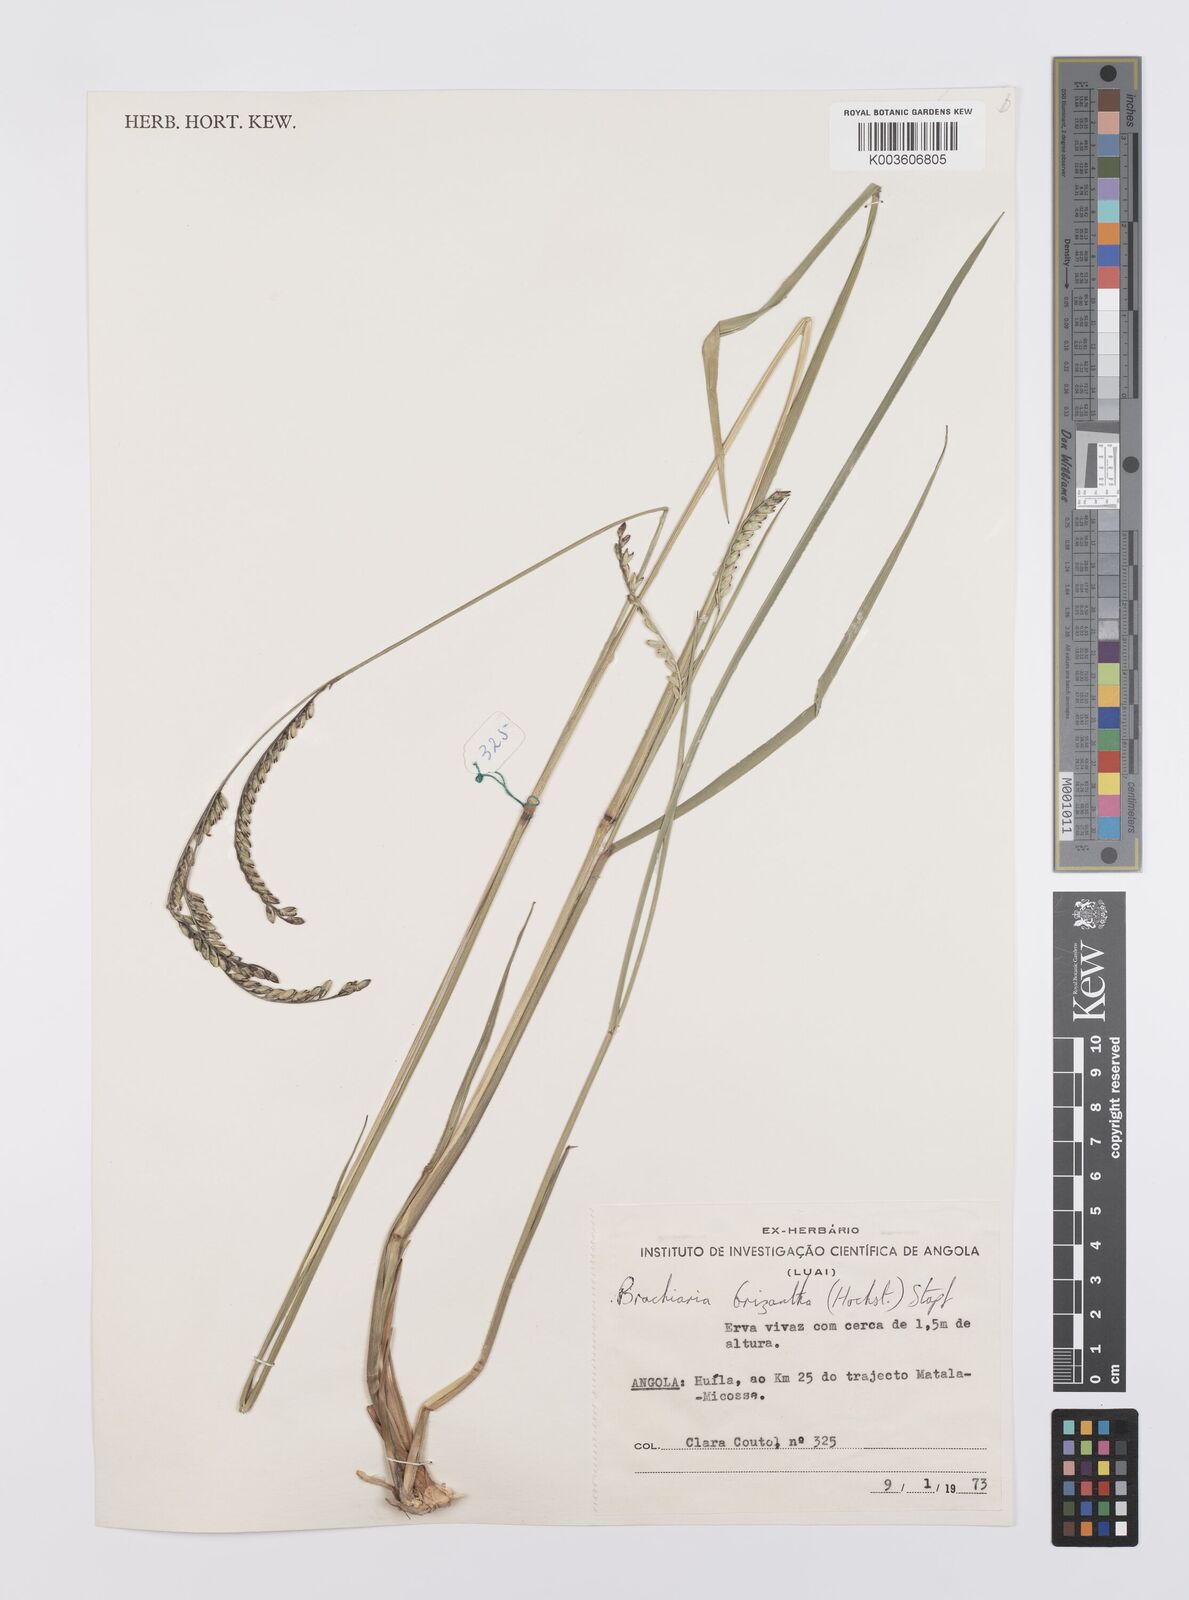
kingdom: Plantae
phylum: Tracheophyta
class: Liliopsida
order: Poales
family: Poaceae
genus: Urochloa
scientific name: Urochloa brizantha
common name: Palisade signalgrass
